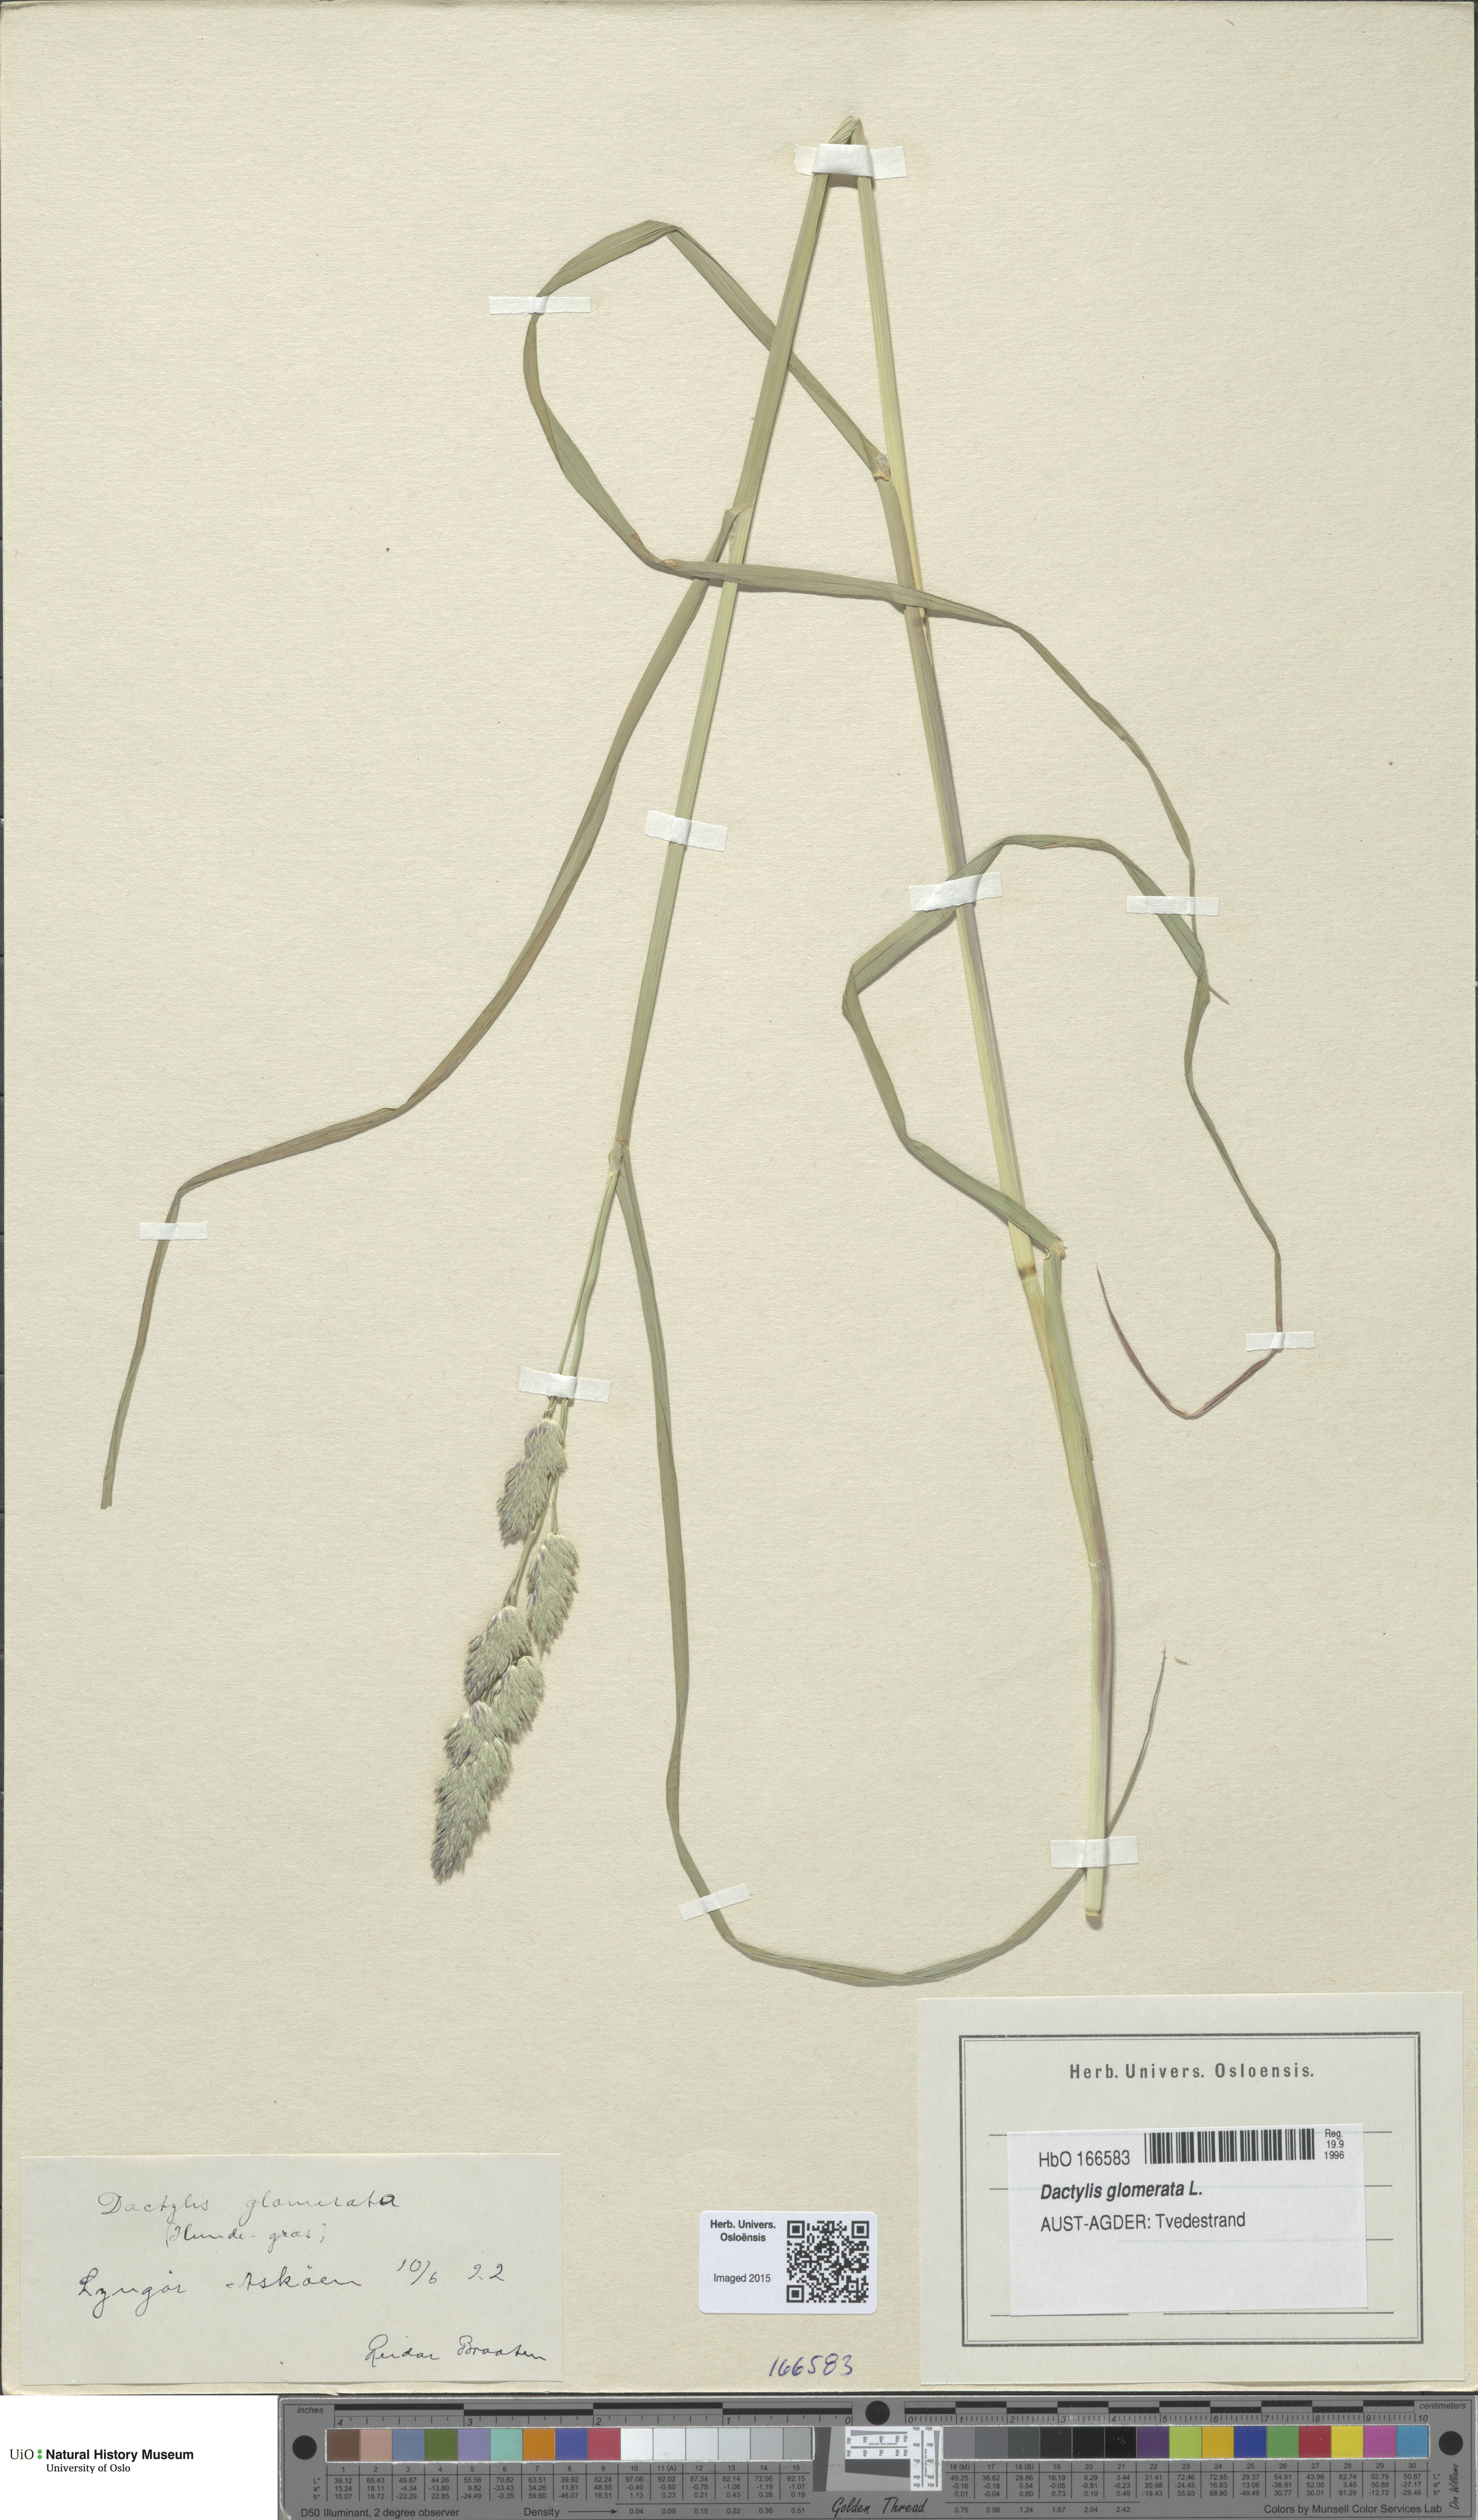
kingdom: Plantae
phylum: Tracheophyta
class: Liliopsida
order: Poales
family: Poaceae
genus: Dactylis
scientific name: Dactylis glomerata
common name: Orchardgrass
